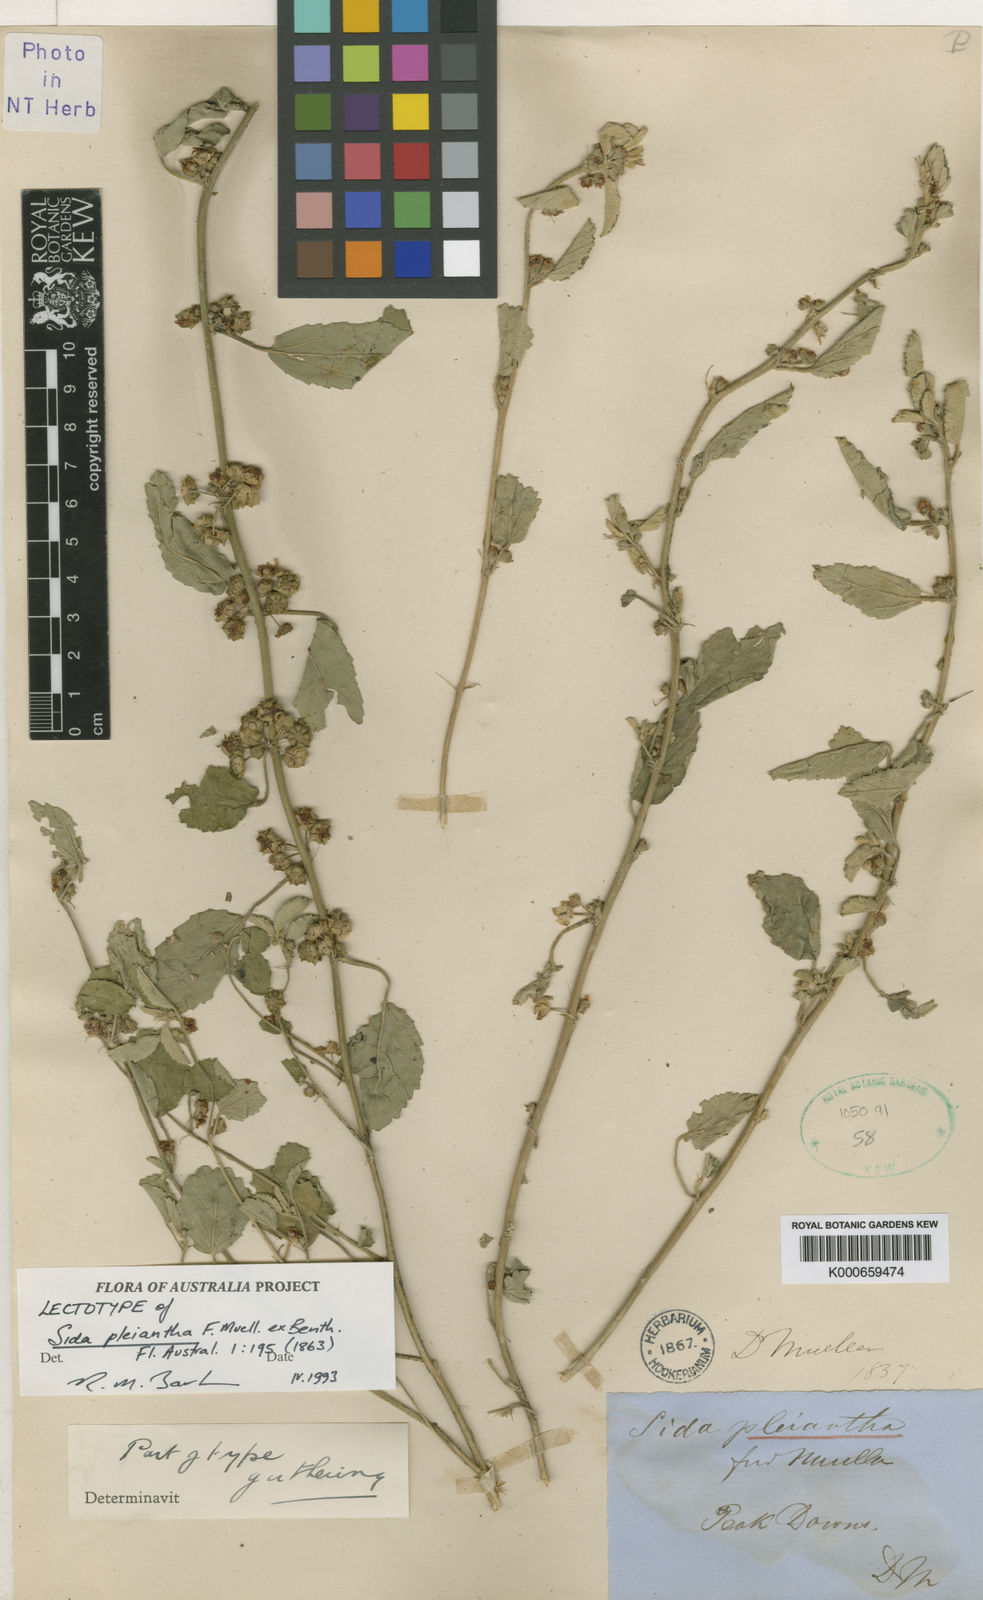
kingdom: Plantae
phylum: Tracheophyta
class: Magnoliopsida
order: Malvales
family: Malvaceae
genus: Sida
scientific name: Sida pleiantha
